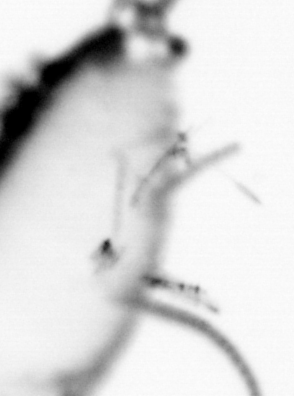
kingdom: Animalia
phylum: Annelida
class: Polychaeta
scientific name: Polychaeta
